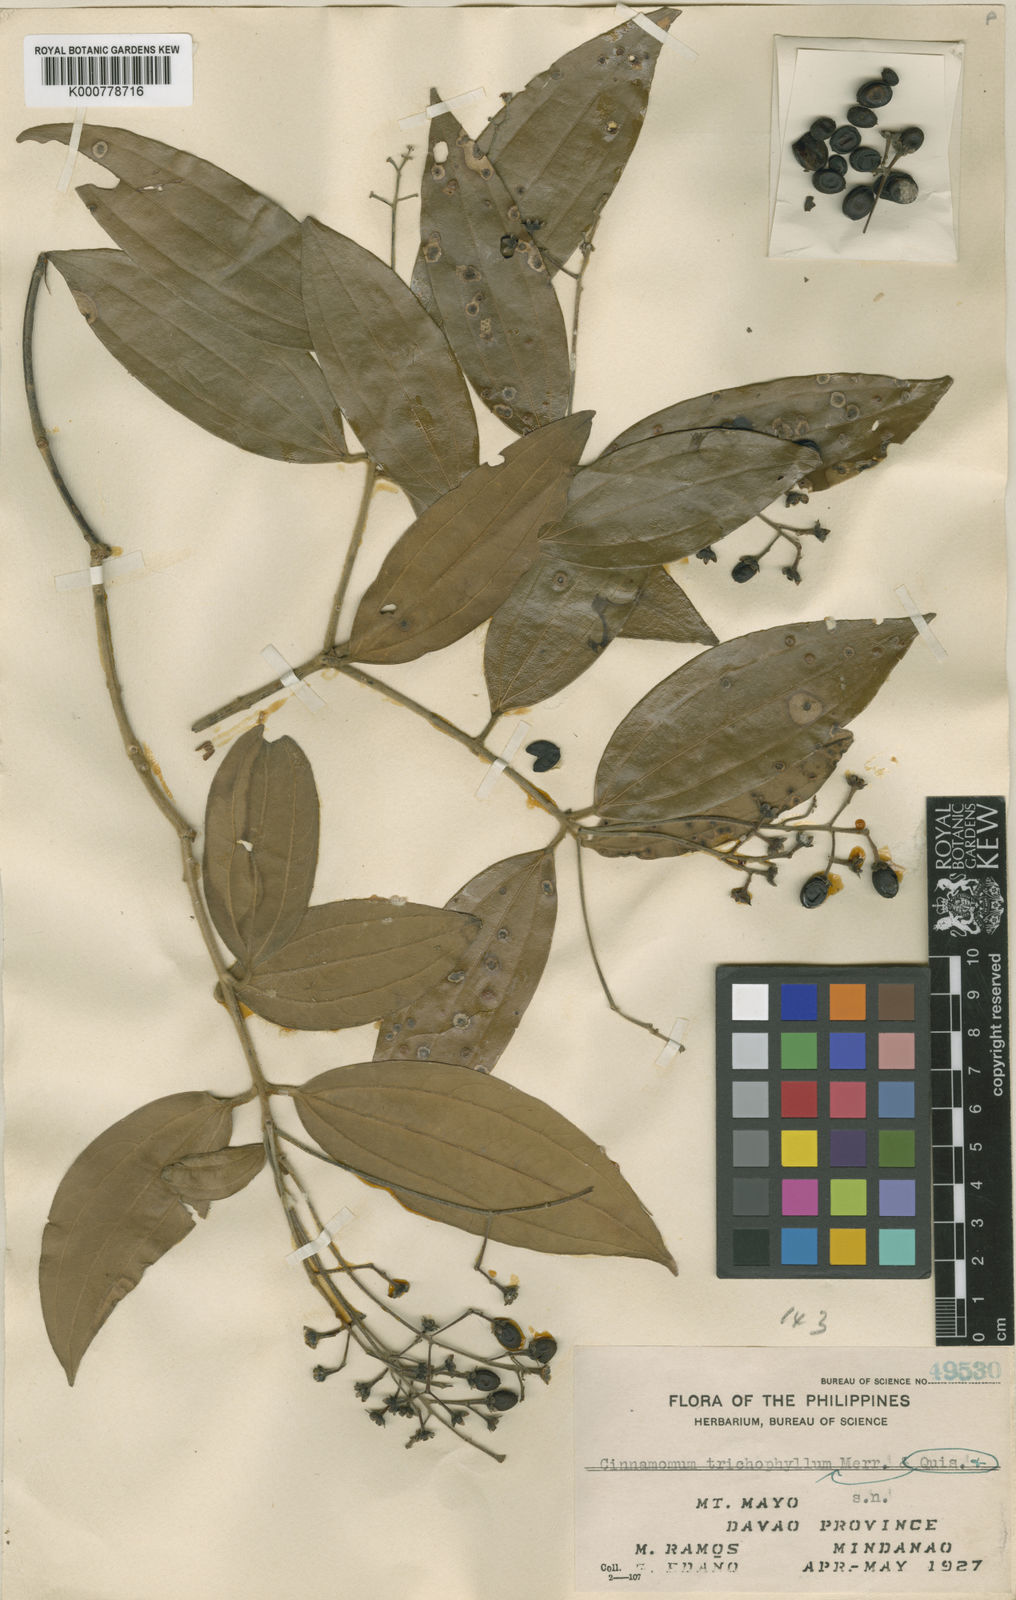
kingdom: Plantae
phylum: Tracheophyta
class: Magnoliopsida
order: Laurales
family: Lauraceae
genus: Cinnamomum
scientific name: Cinnamomum trichophyllum
